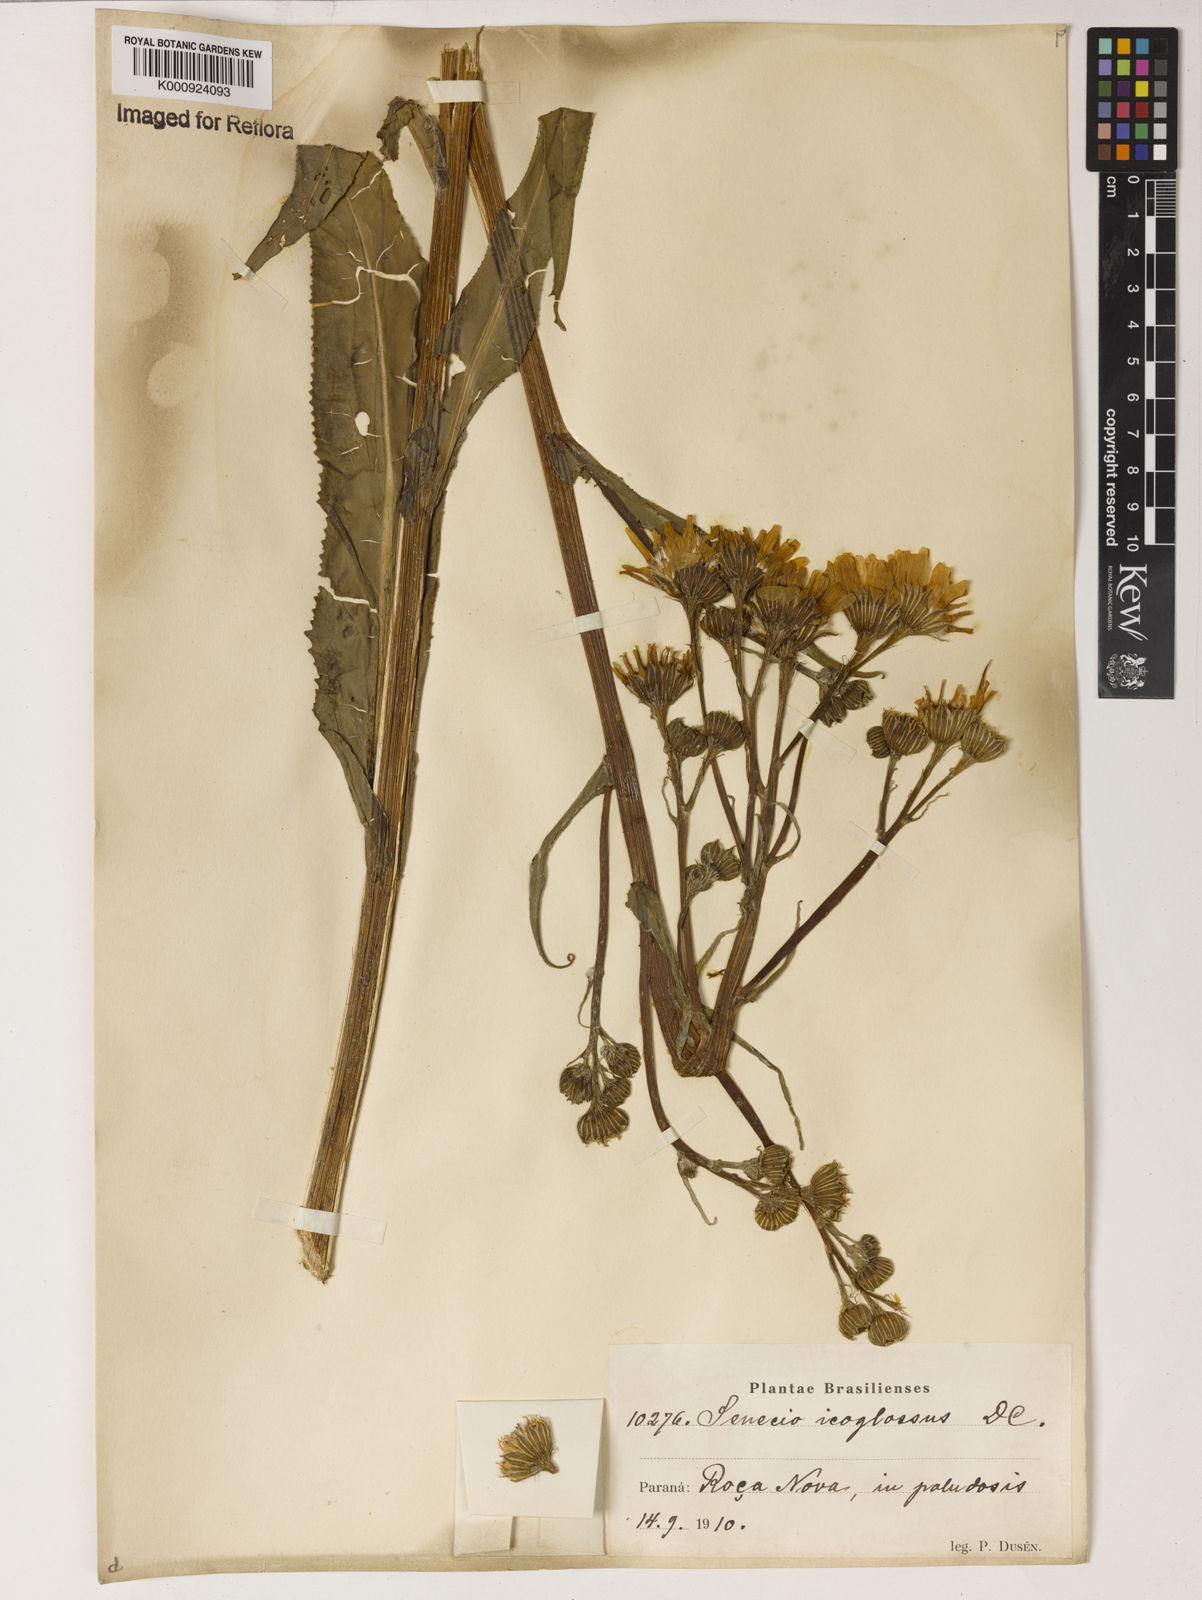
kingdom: Plantae
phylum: Tracheophyta
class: Magnoliopsida
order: Asterales
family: Asteraceae
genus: Senecio
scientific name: Senecio icoglossus
